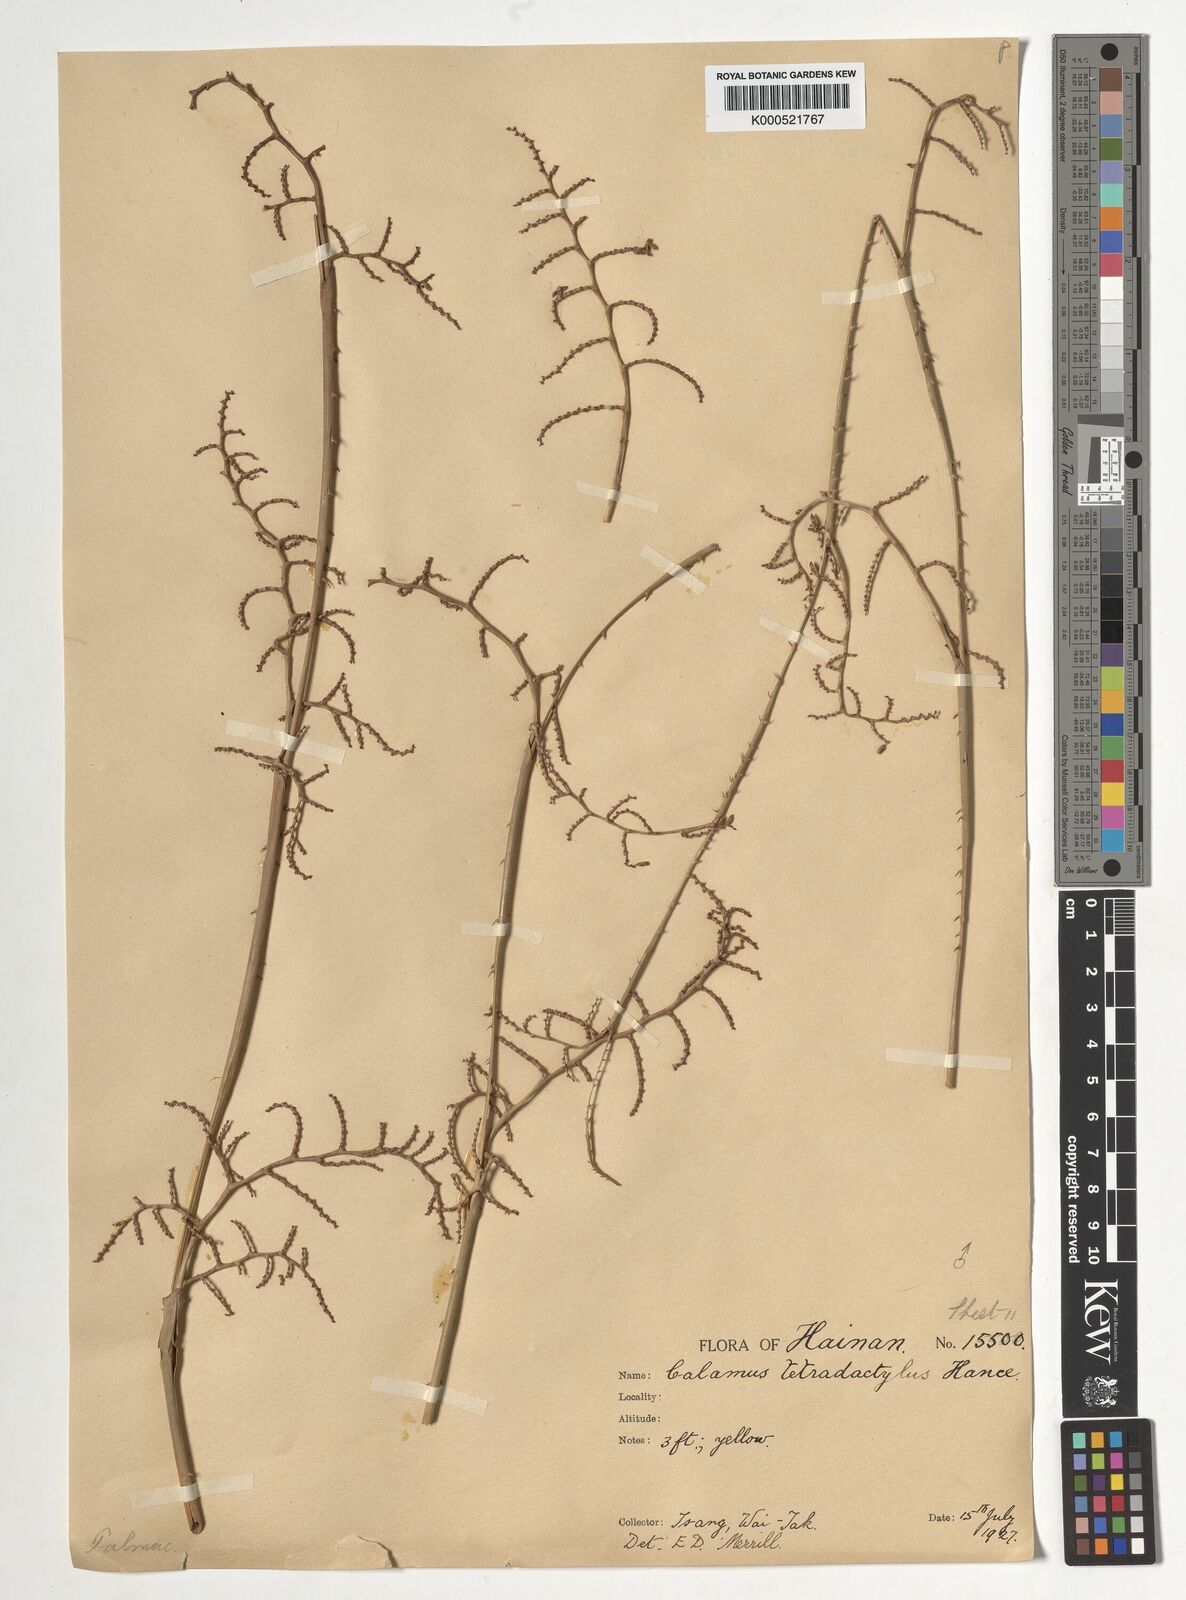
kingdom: Plantae
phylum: Tracheophyta
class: Liliopsida
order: Arecales
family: Arecaceae
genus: Calamus
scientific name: Calamus tetradactylus
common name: White rattan
